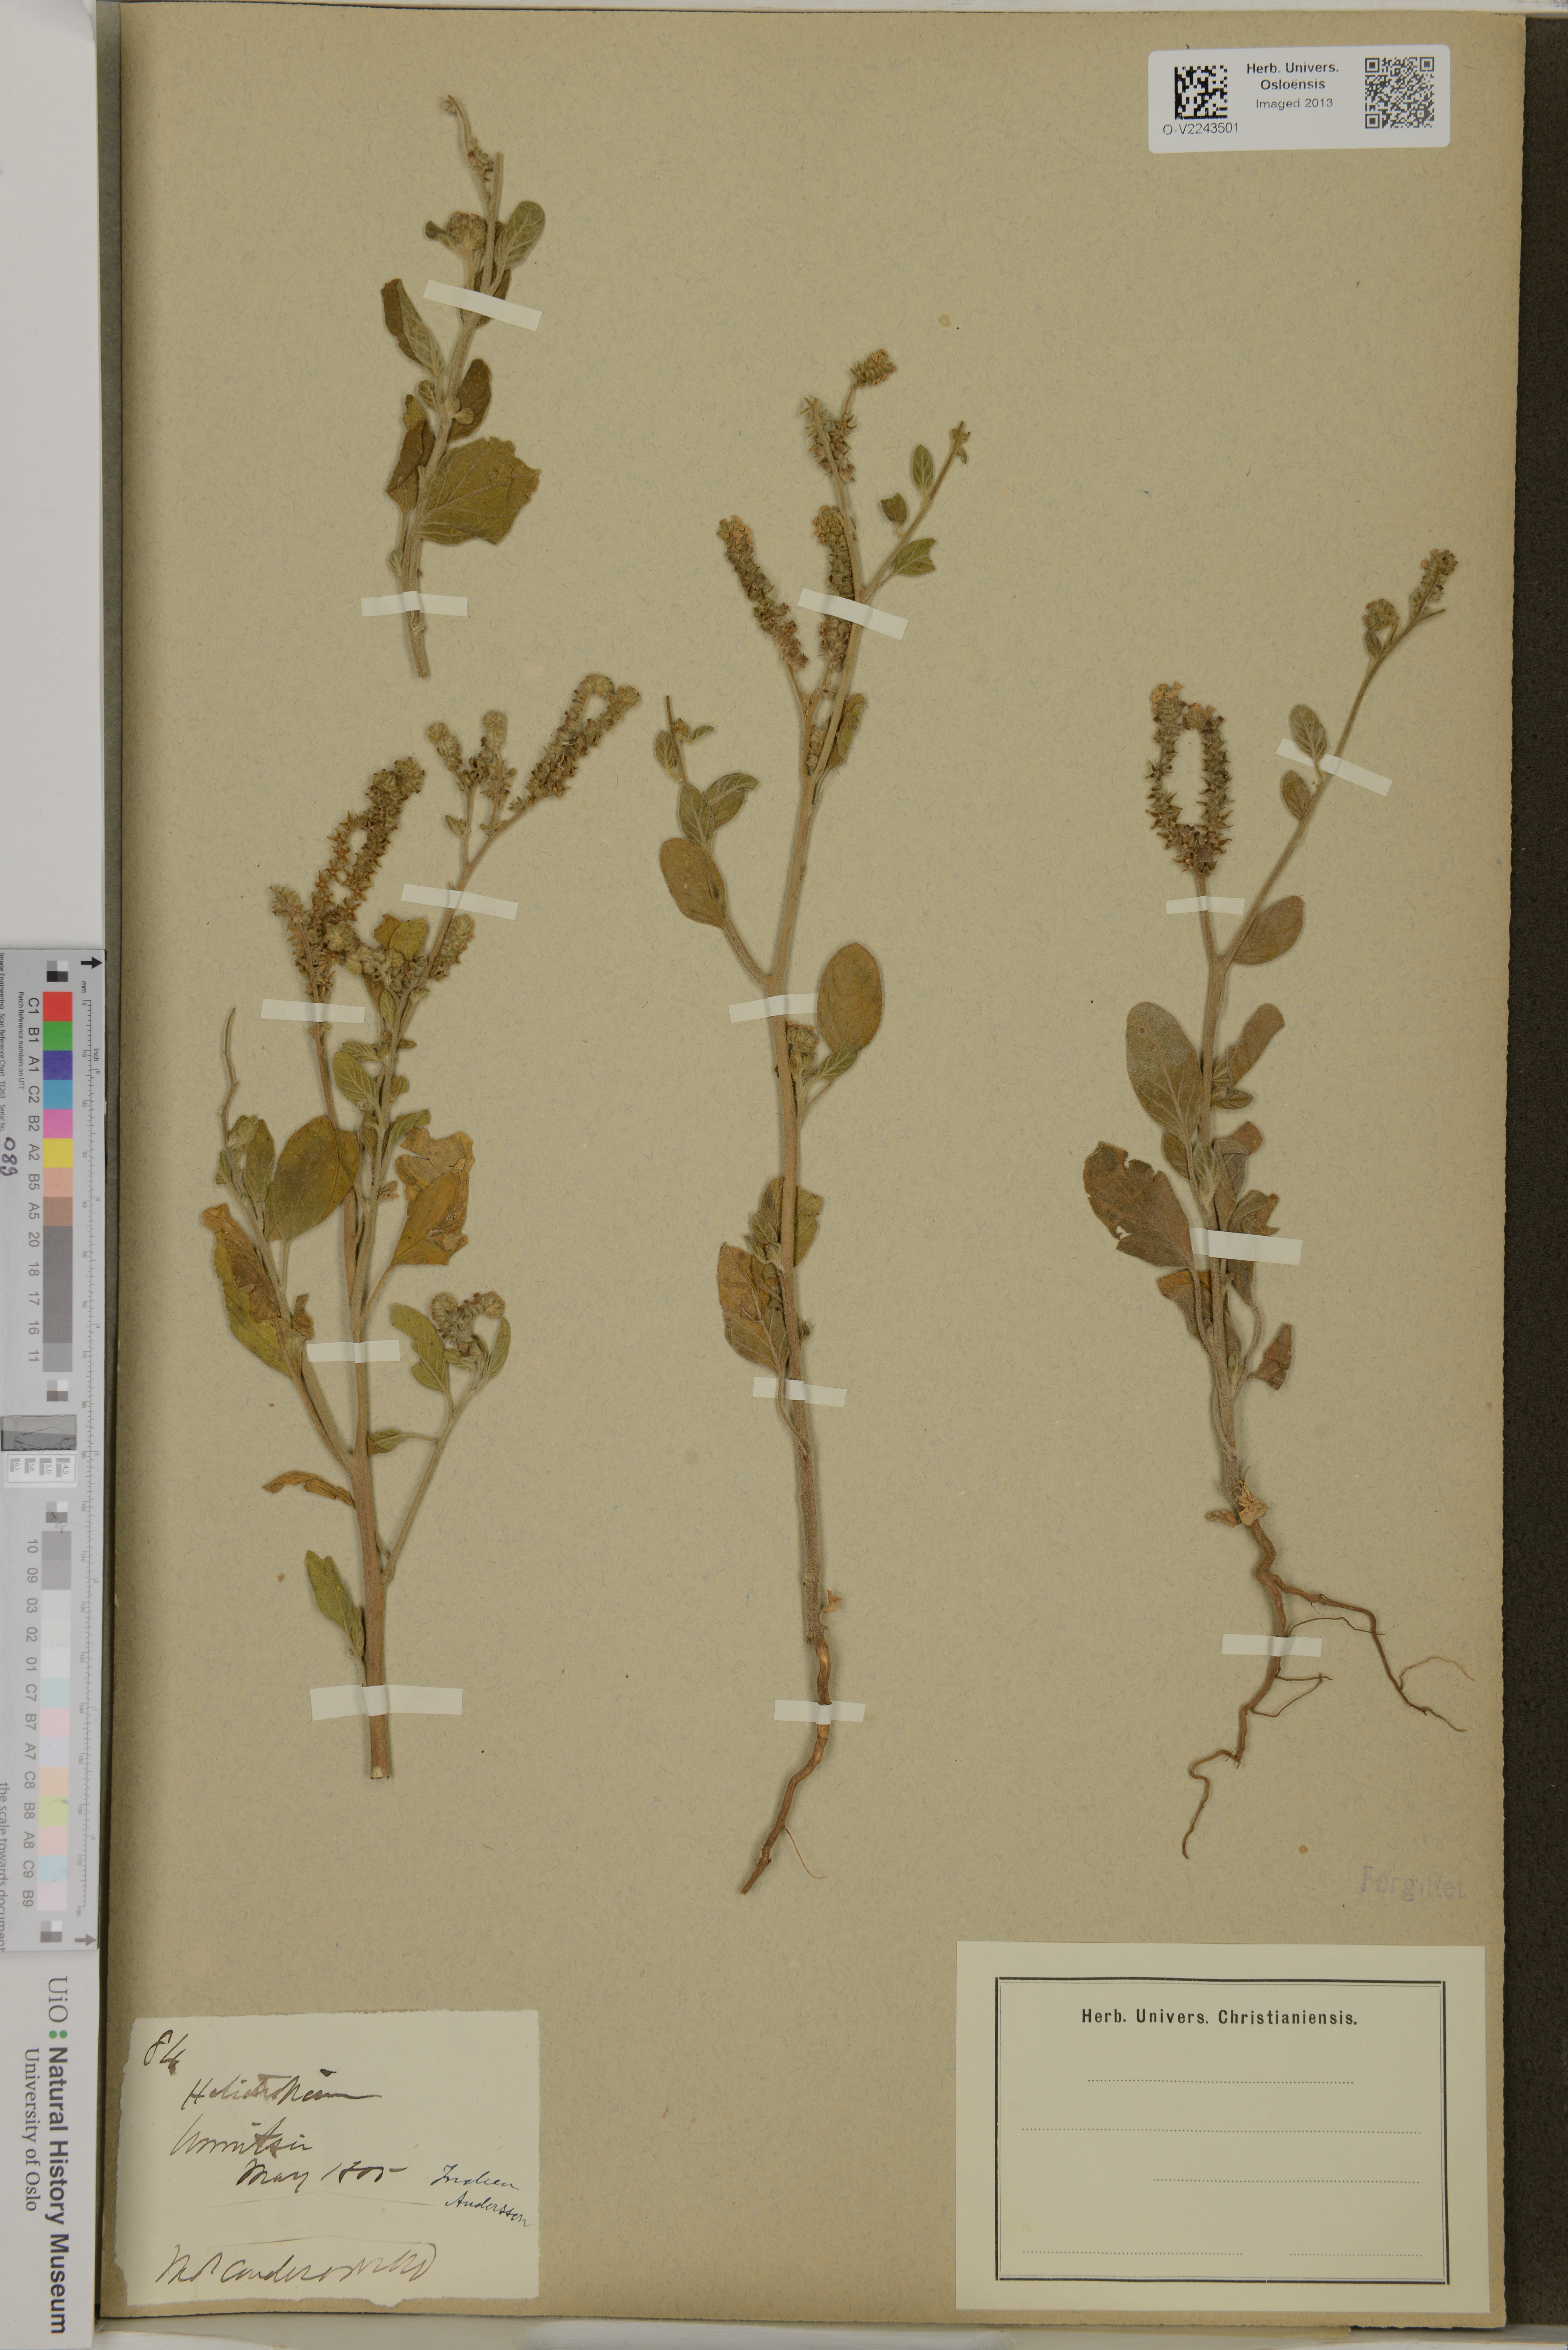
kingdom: Plantae
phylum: Tracheophyta
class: Magnoliopsida
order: Boraginales
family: Heliotropiaceae
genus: Heliotropium
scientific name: Heliotropium lineare
